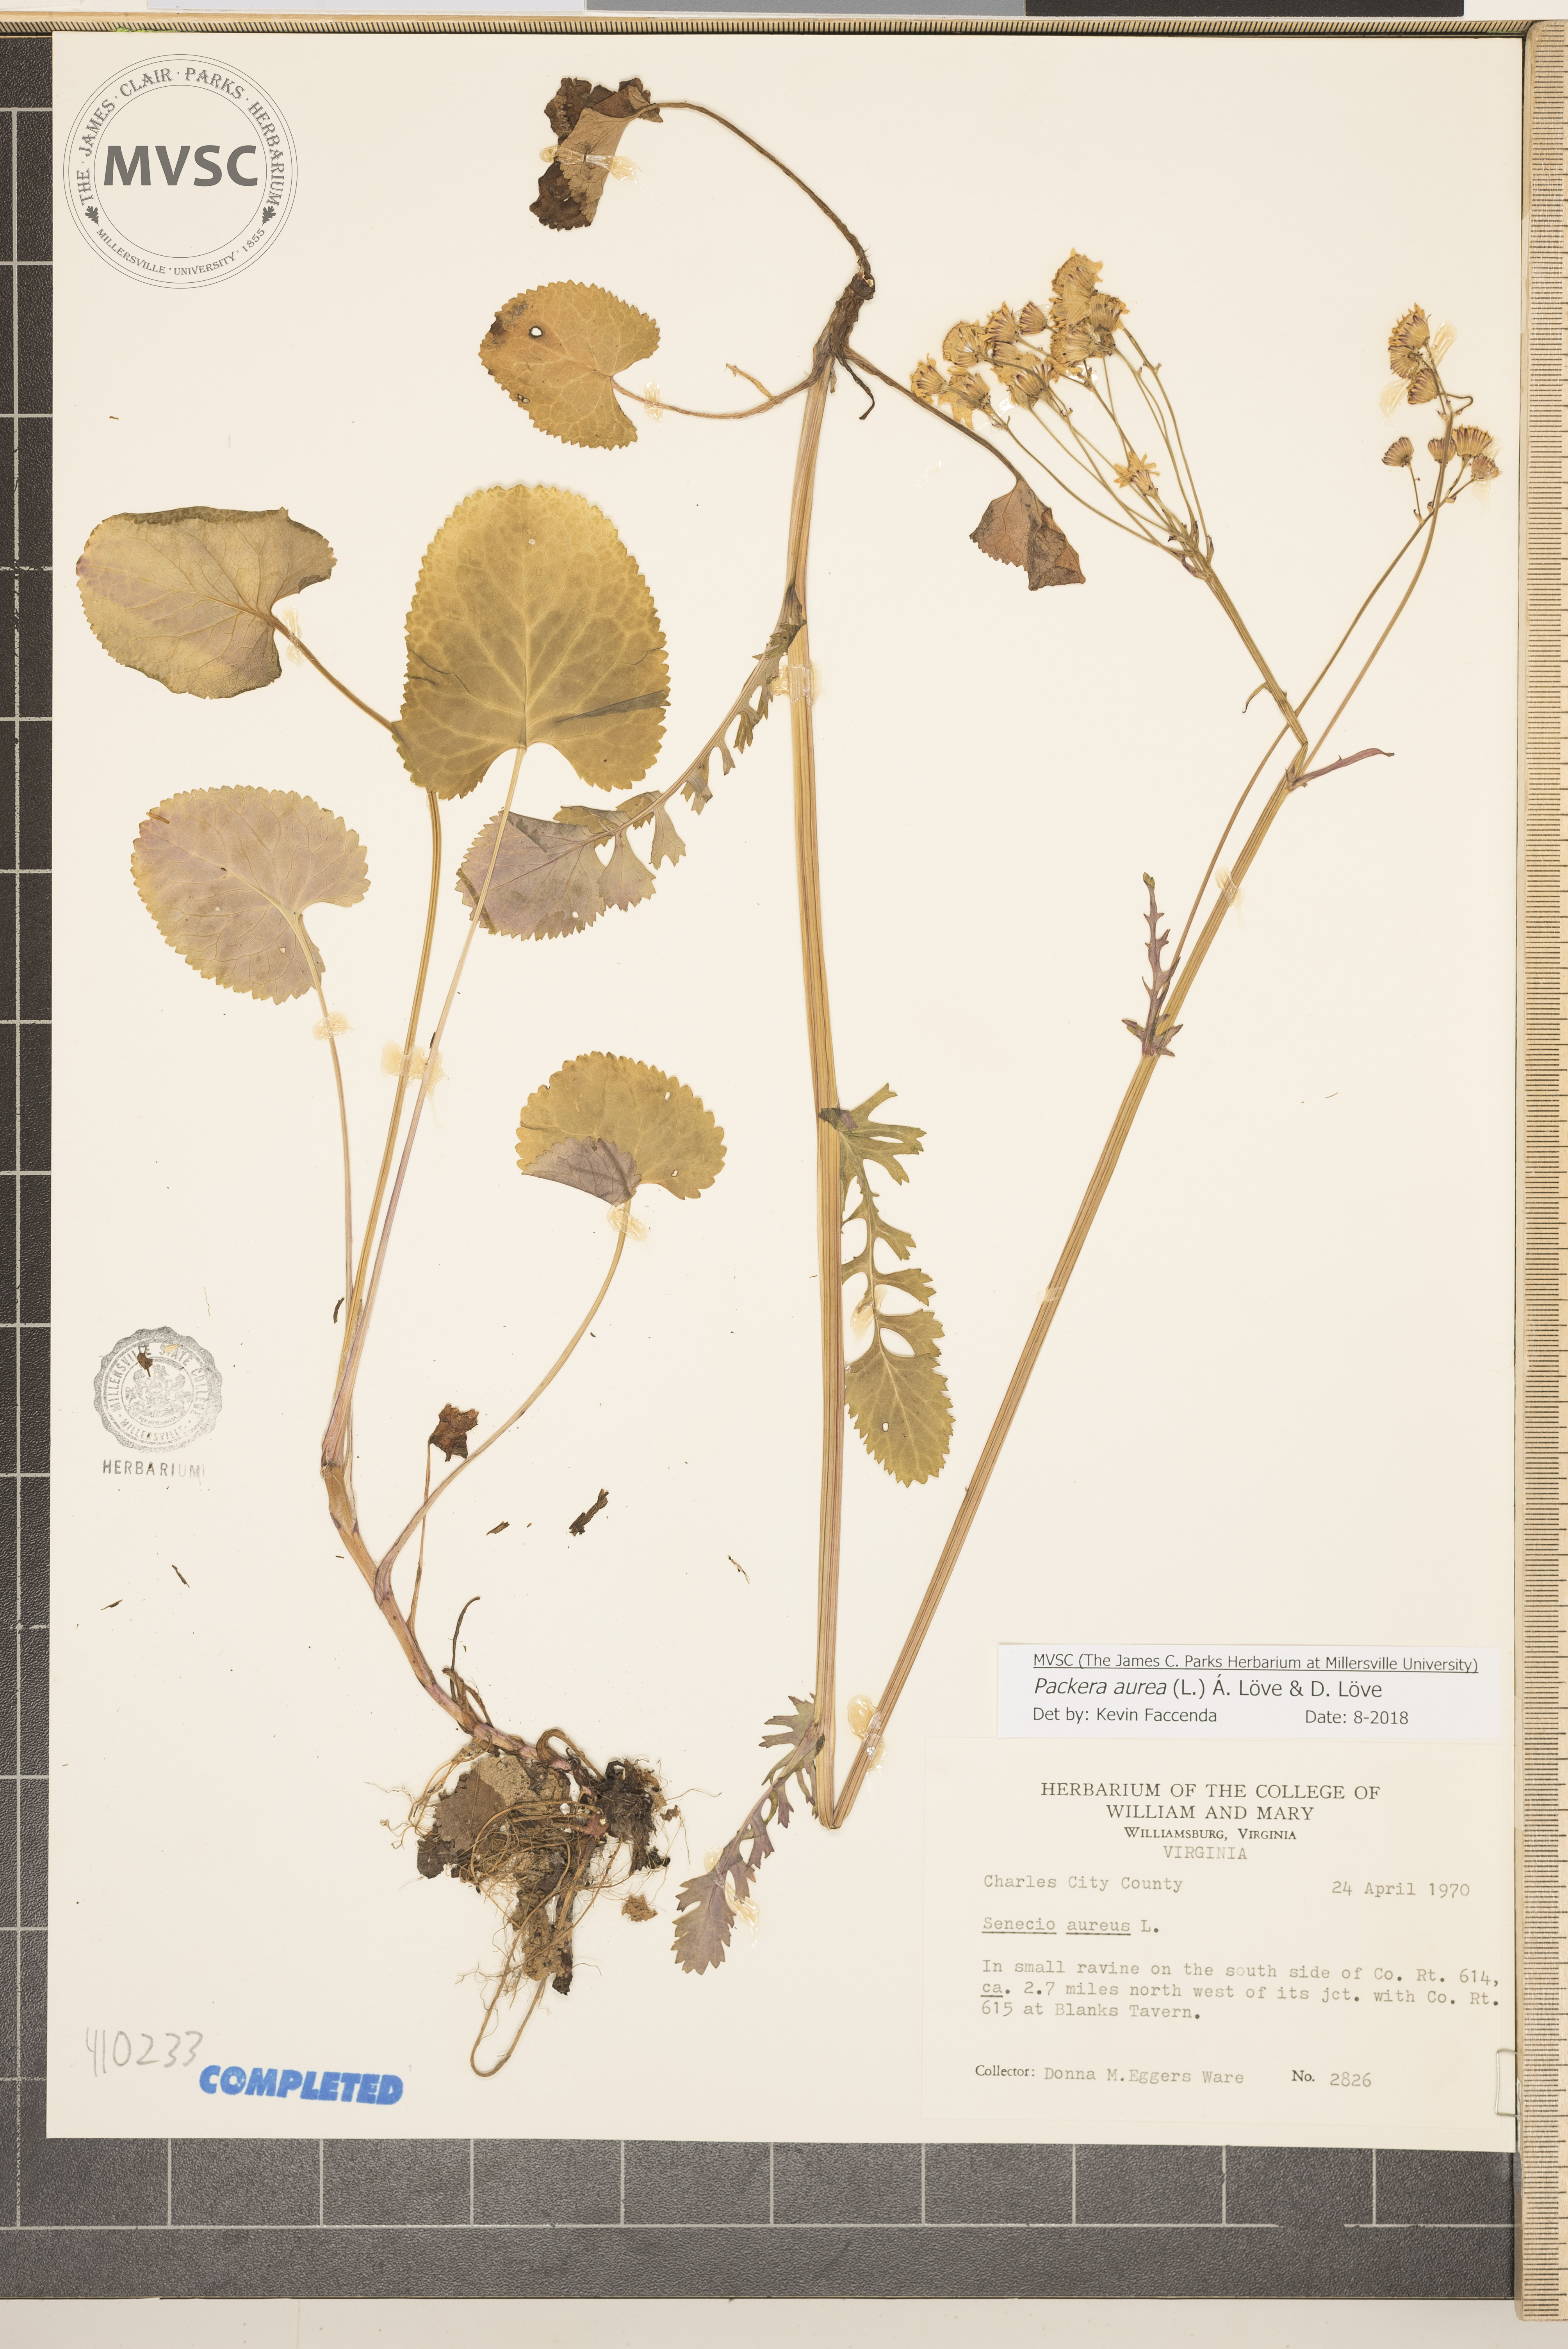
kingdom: Plantae
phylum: Tracheophyta
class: Magnoliopsida
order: Asterales
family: Asteraceae
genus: Packera
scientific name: Packera aurea
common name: Golden groundsel
